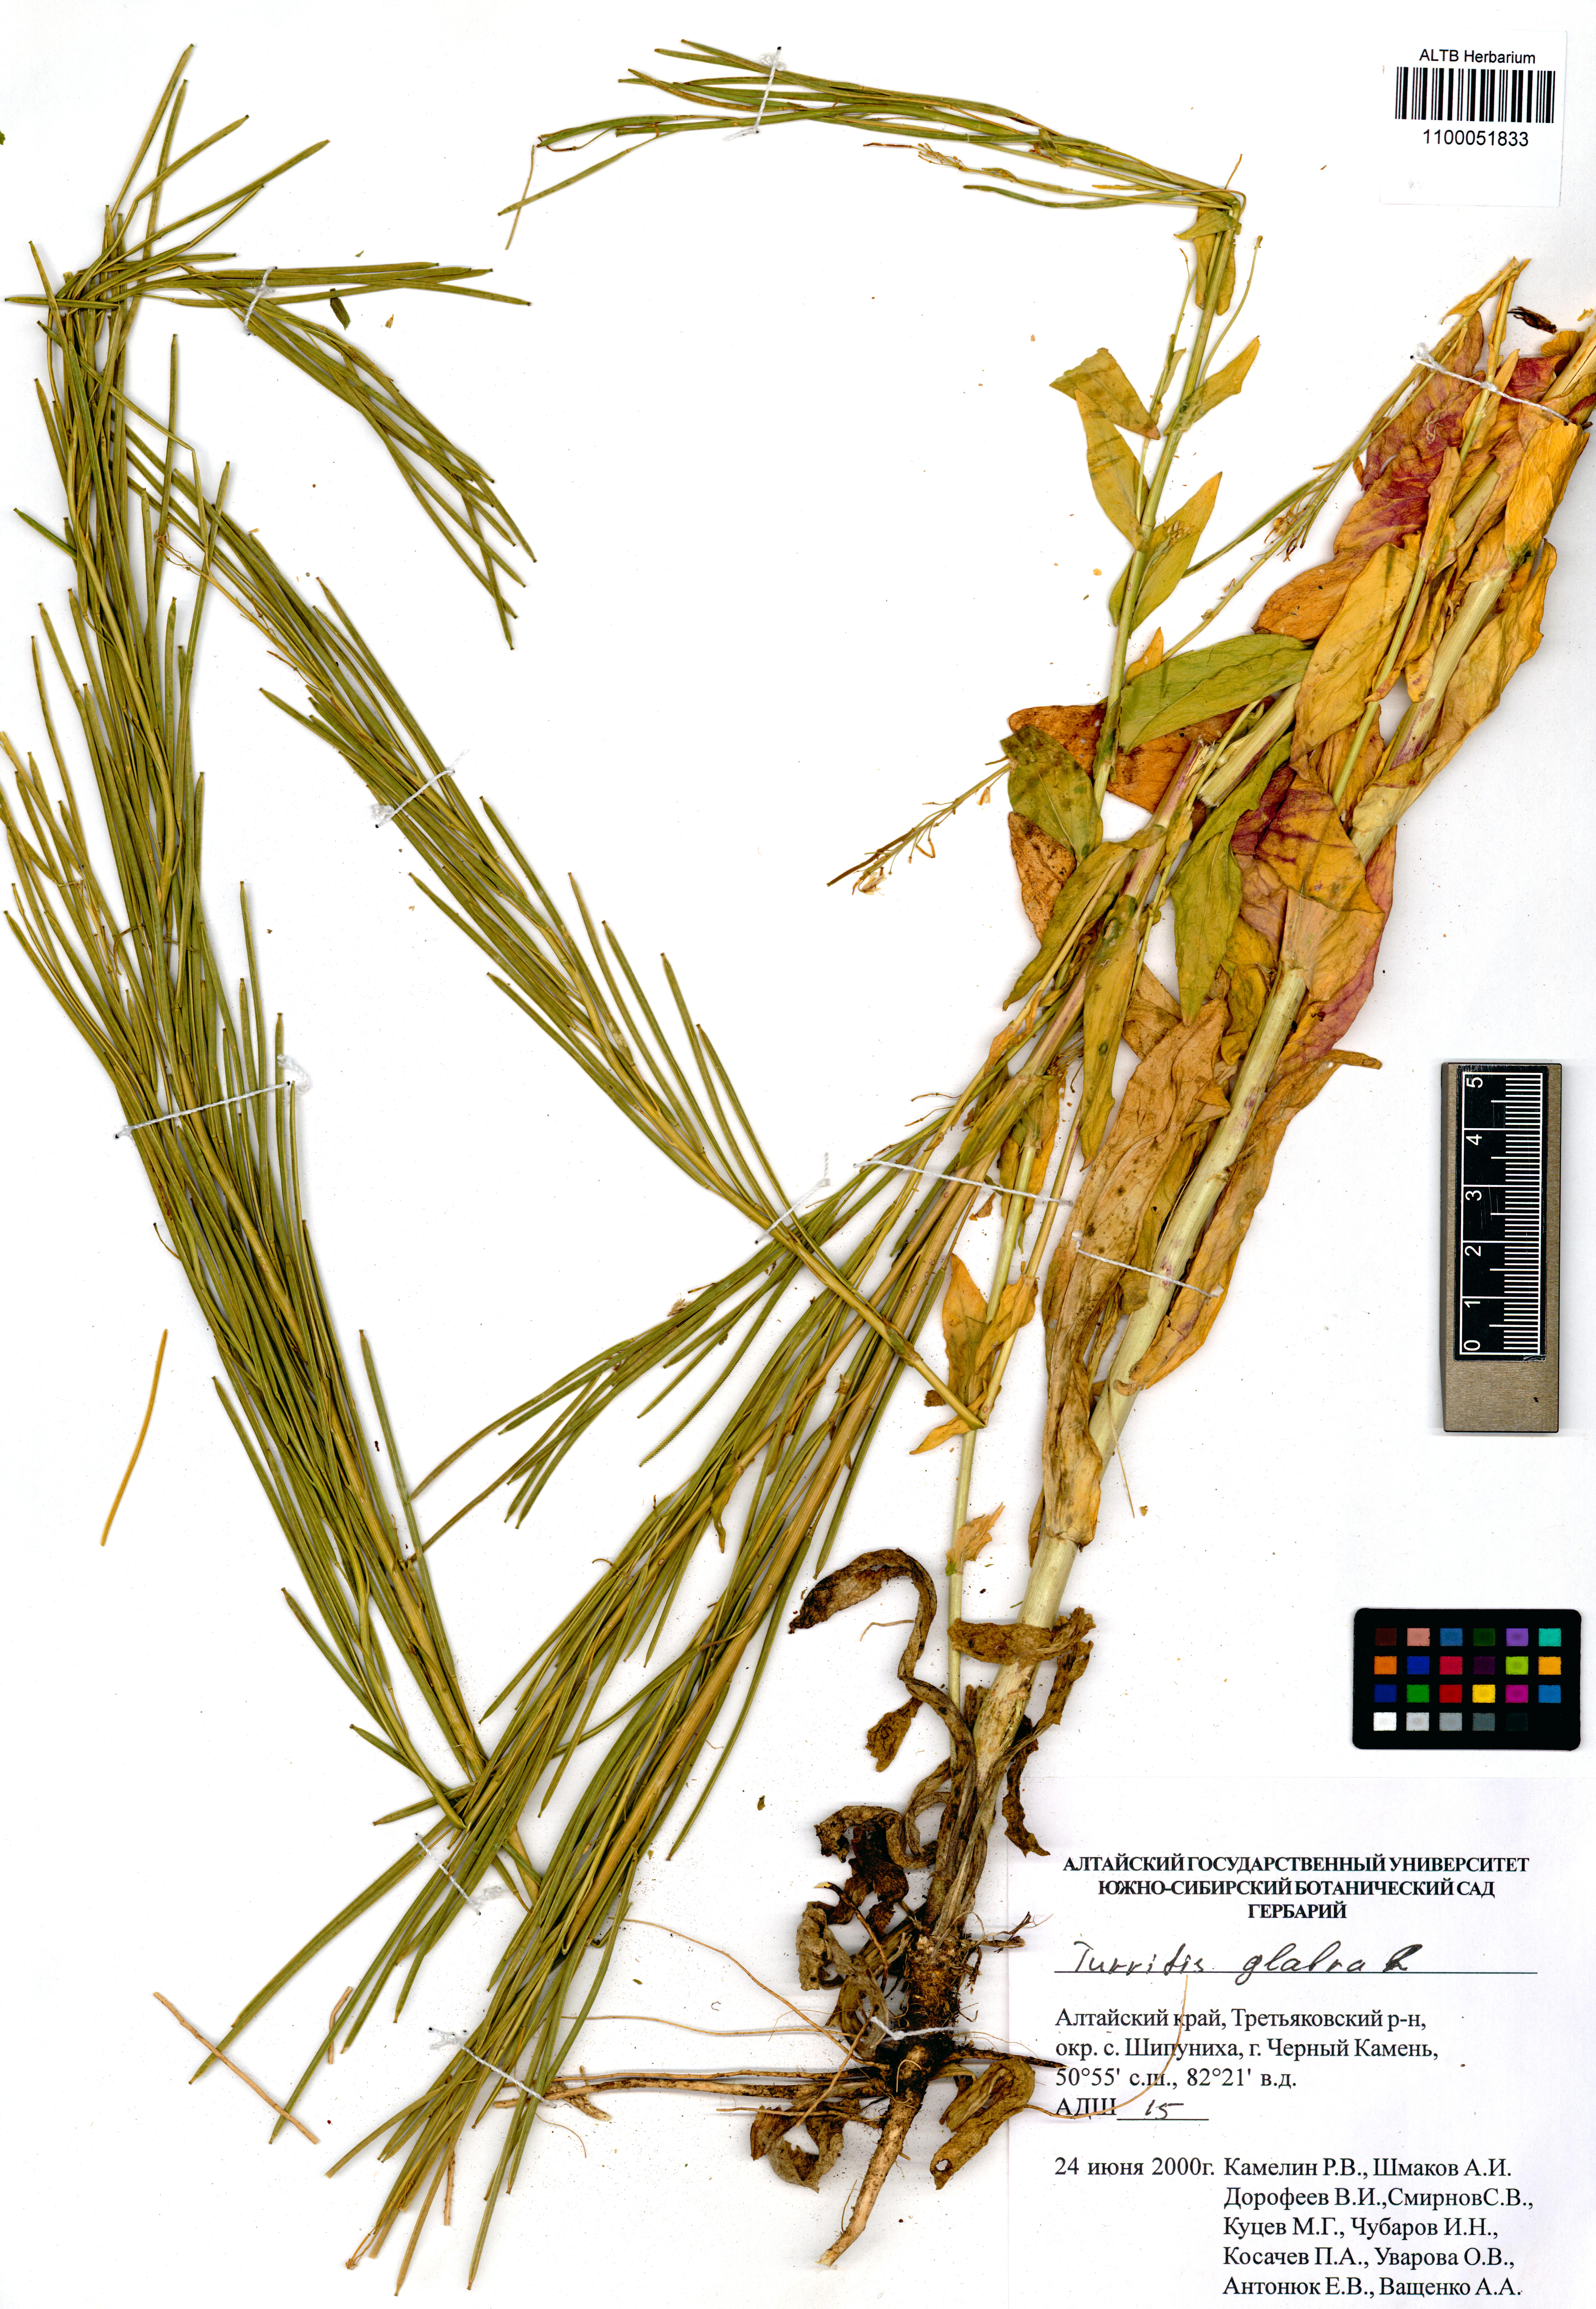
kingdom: Plantae
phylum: Tracheophyta
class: Magnoliopsida
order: Brassicales
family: Brassicaceae
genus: Turritis
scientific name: Turritis glabra
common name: Tower rockcress
